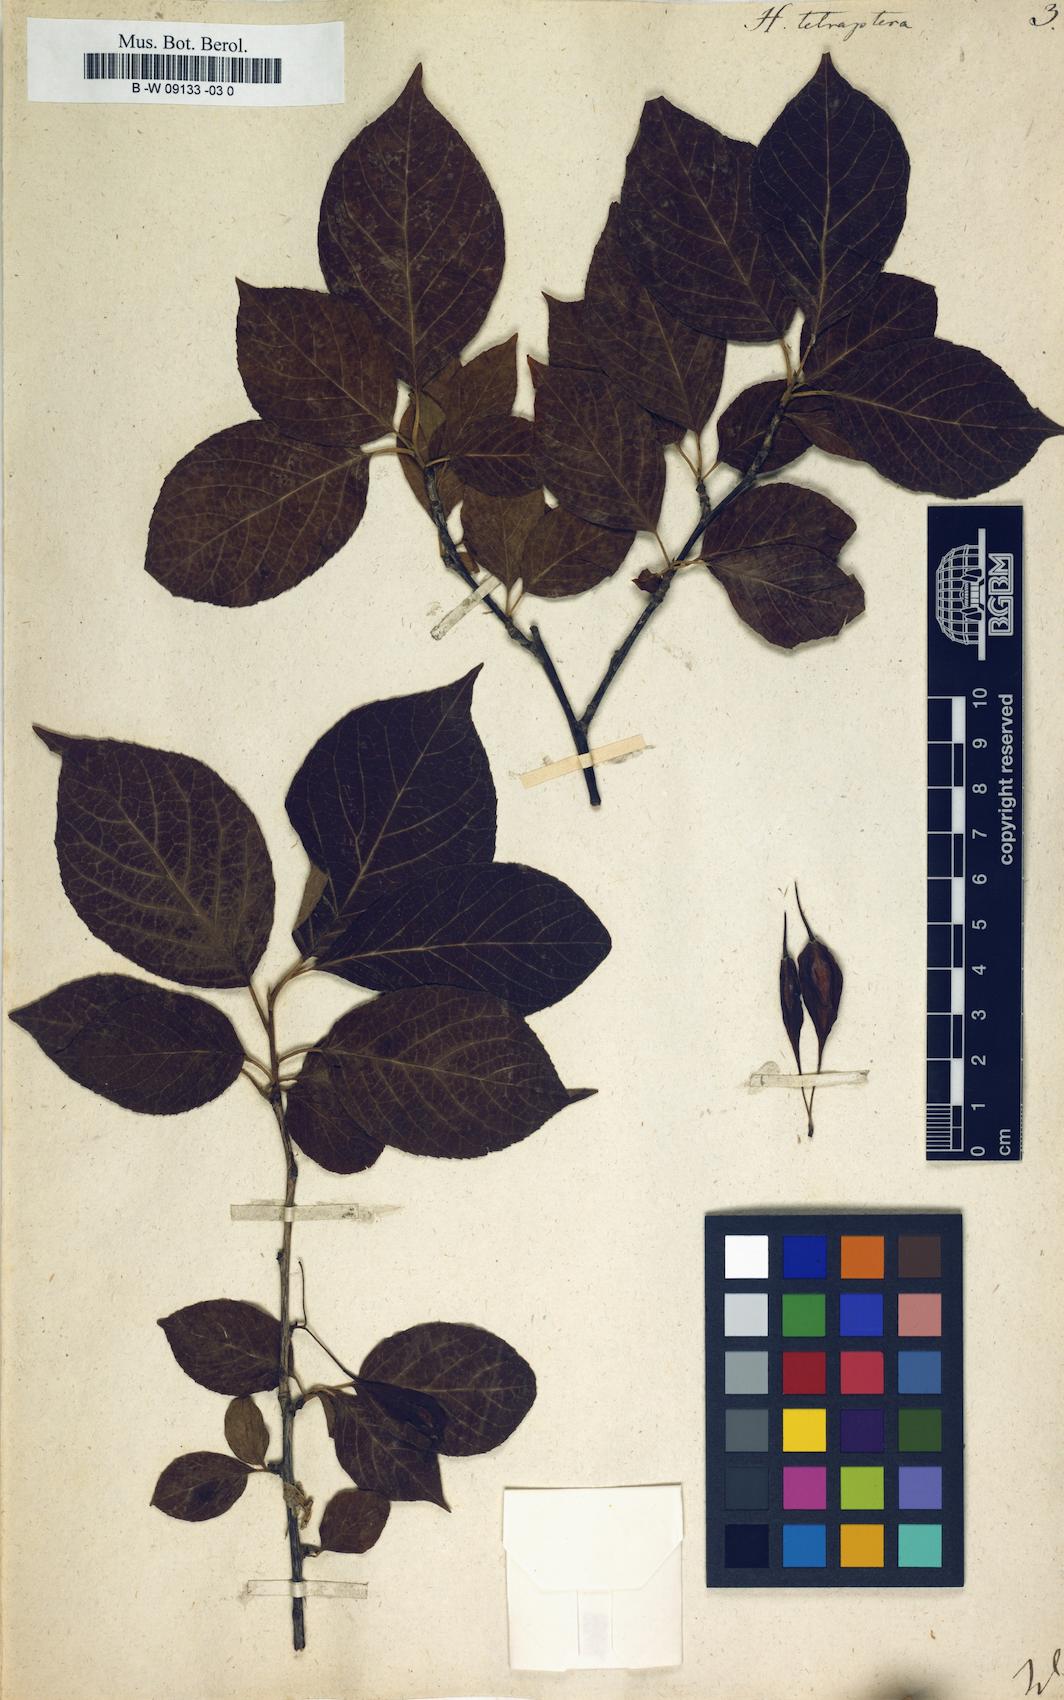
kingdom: Plantae
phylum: Tracheophyta
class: Magnoliopsida
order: Ericales
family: Styracaceae
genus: Halesia
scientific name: Halesia tetraptera
